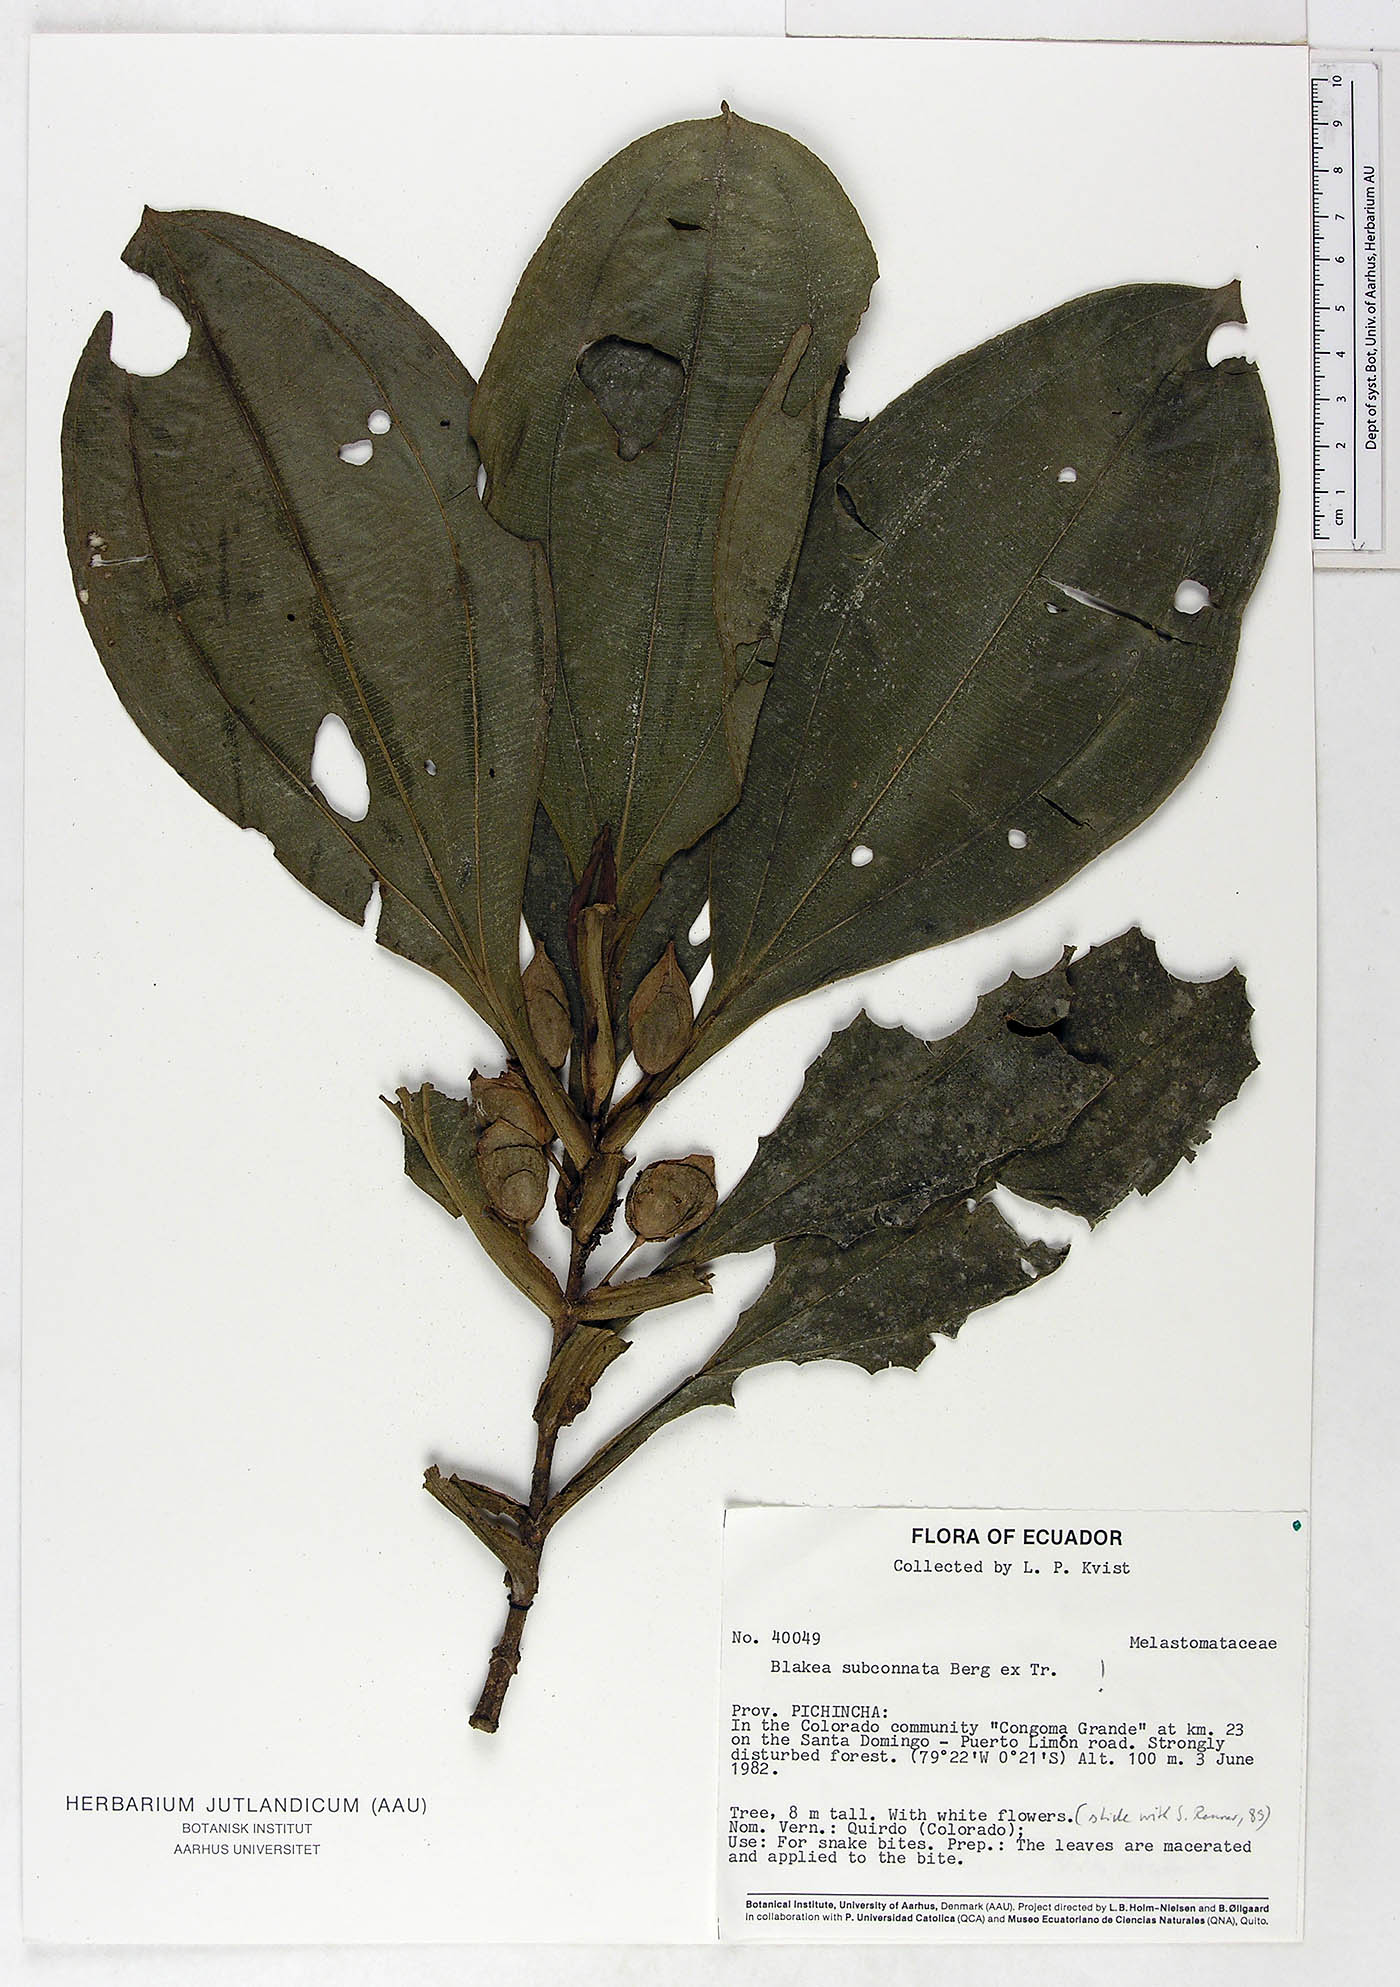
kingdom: Plantae
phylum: Tracheophyta
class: Magnoliopsida
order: Myrtales
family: Melastomataceae
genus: Blakea
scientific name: Blakea subconnata
